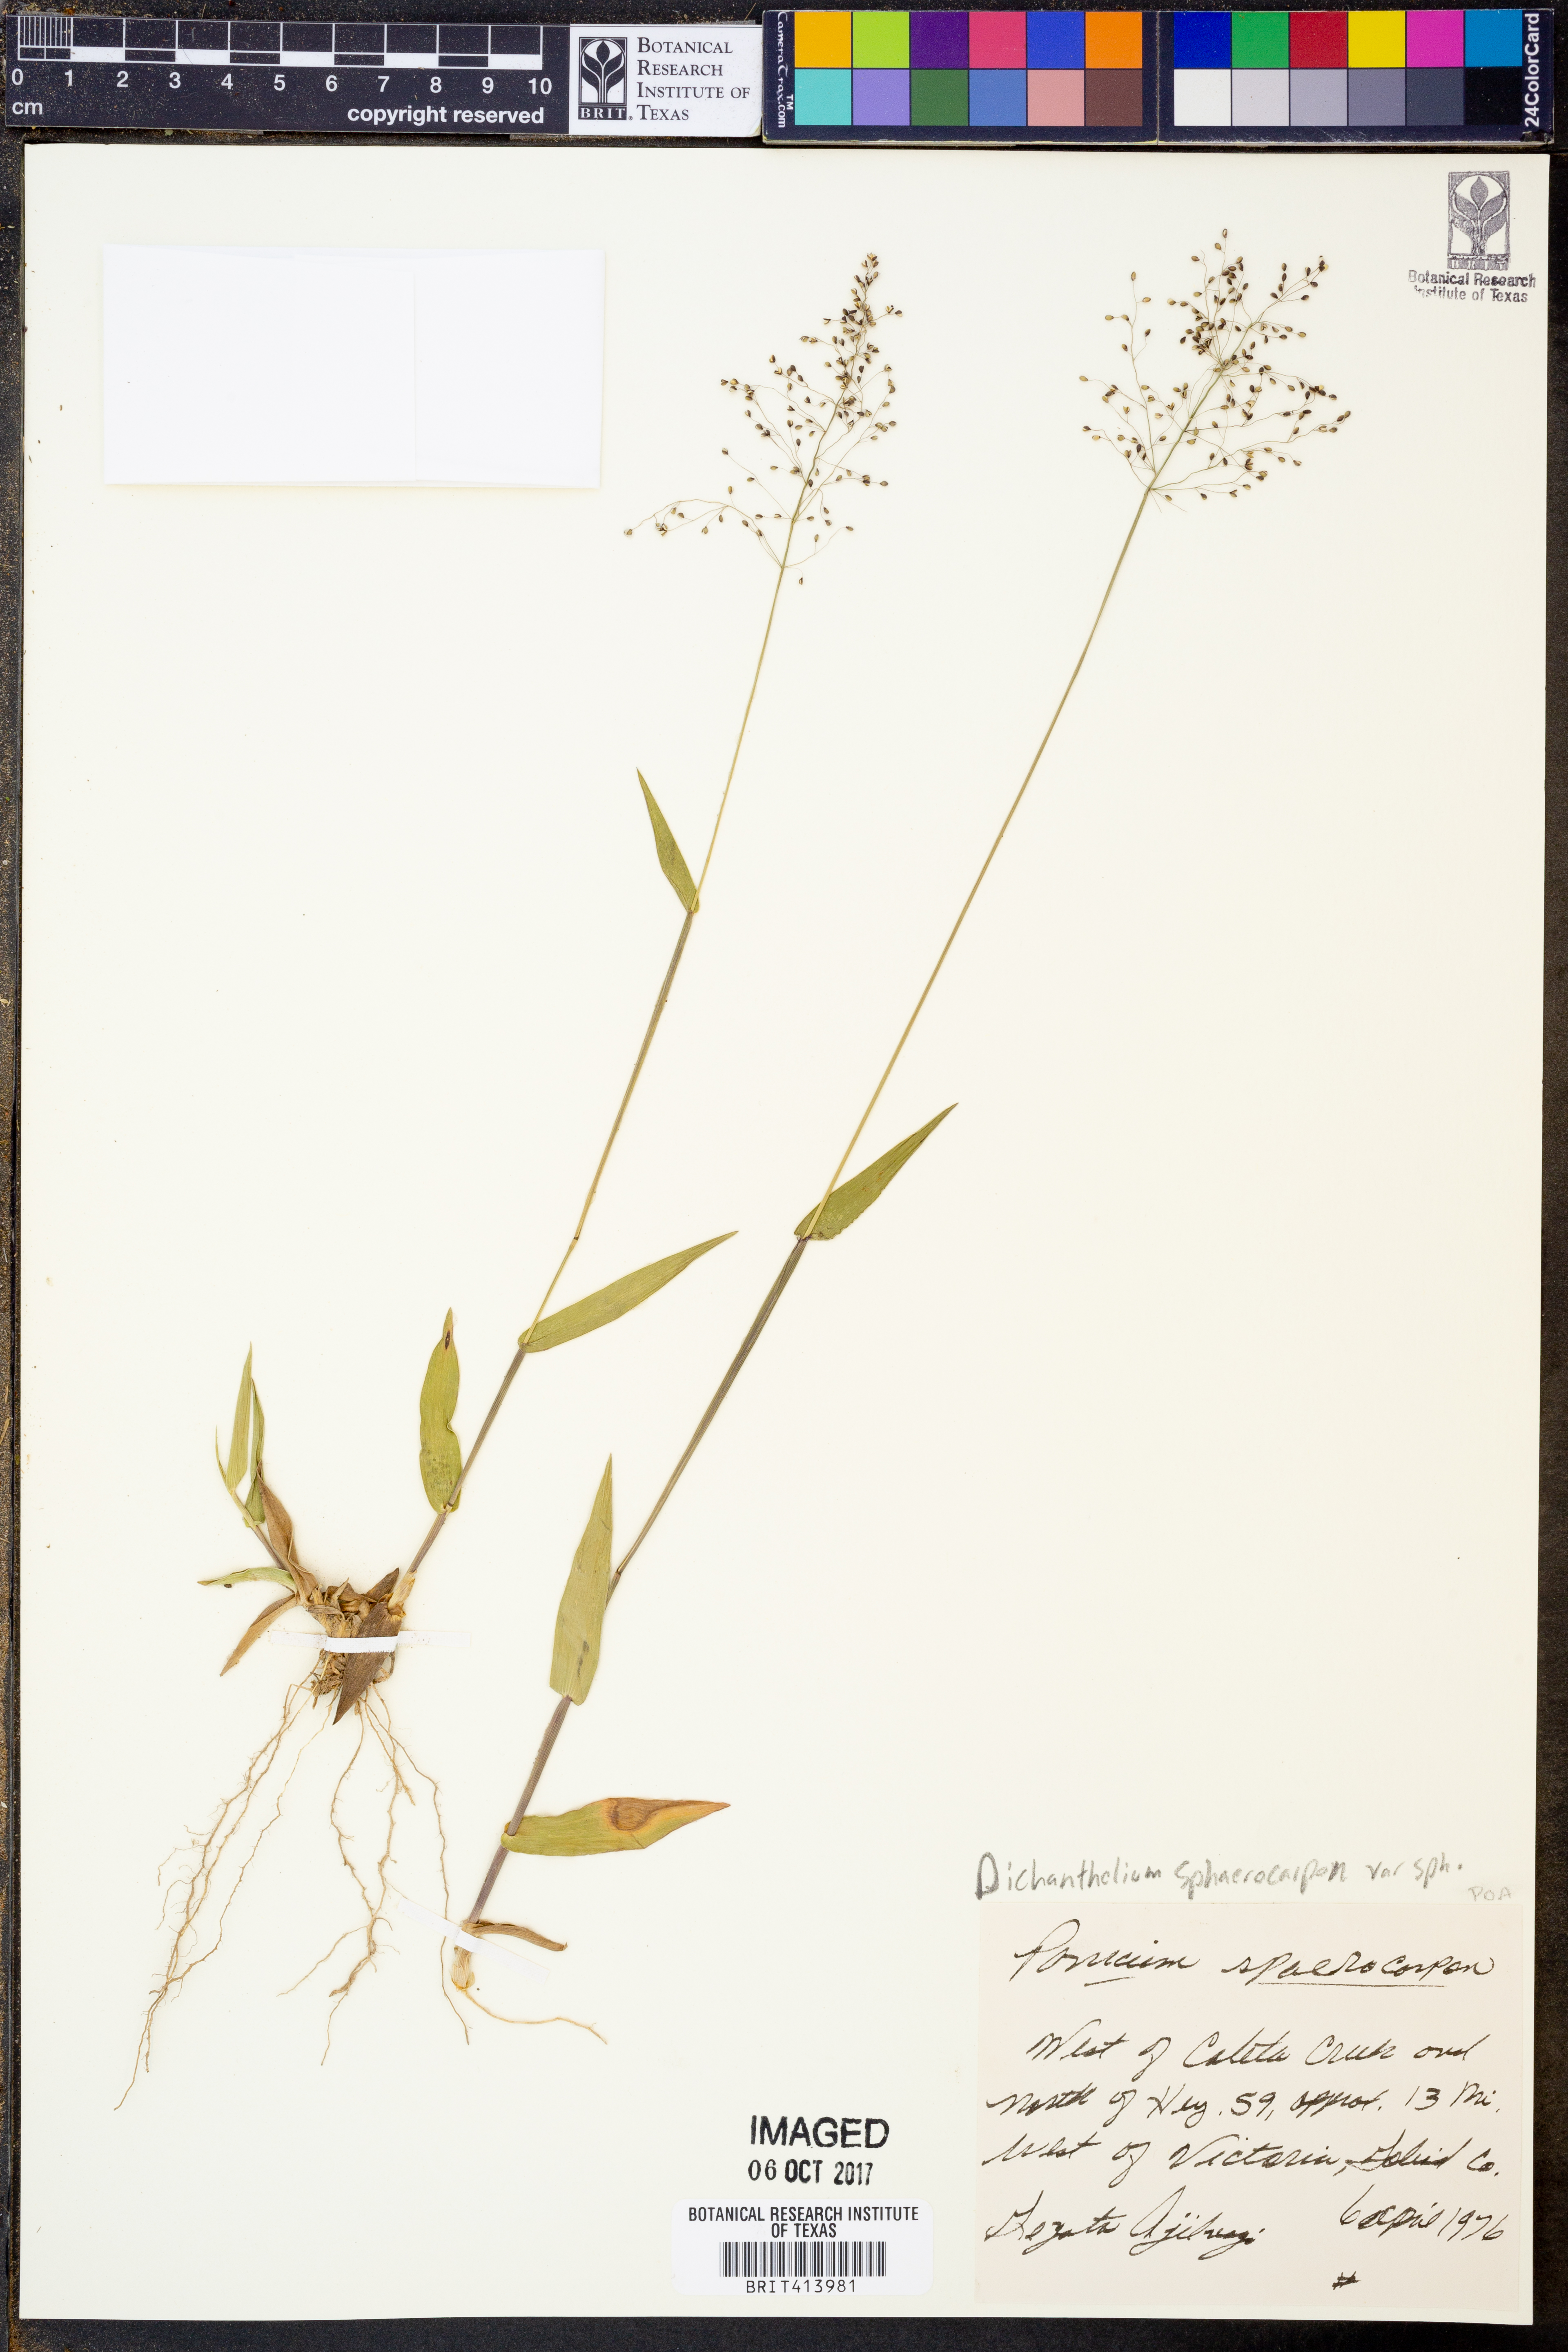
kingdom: Plantae
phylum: Tracheophyta
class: Liliopsida
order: Poales
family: Poaceae
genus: Dichanthelium
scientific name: Dichanthelium sphaerocarpon
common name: Round-fruited panicgrass
